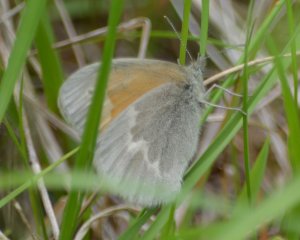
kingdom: Animalia
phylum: Arthropoda
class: Insecta
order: Lepidoptera
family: Nymphalidae
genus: Coenonympha
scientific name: Coenonympha tullia
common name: Large Heath
